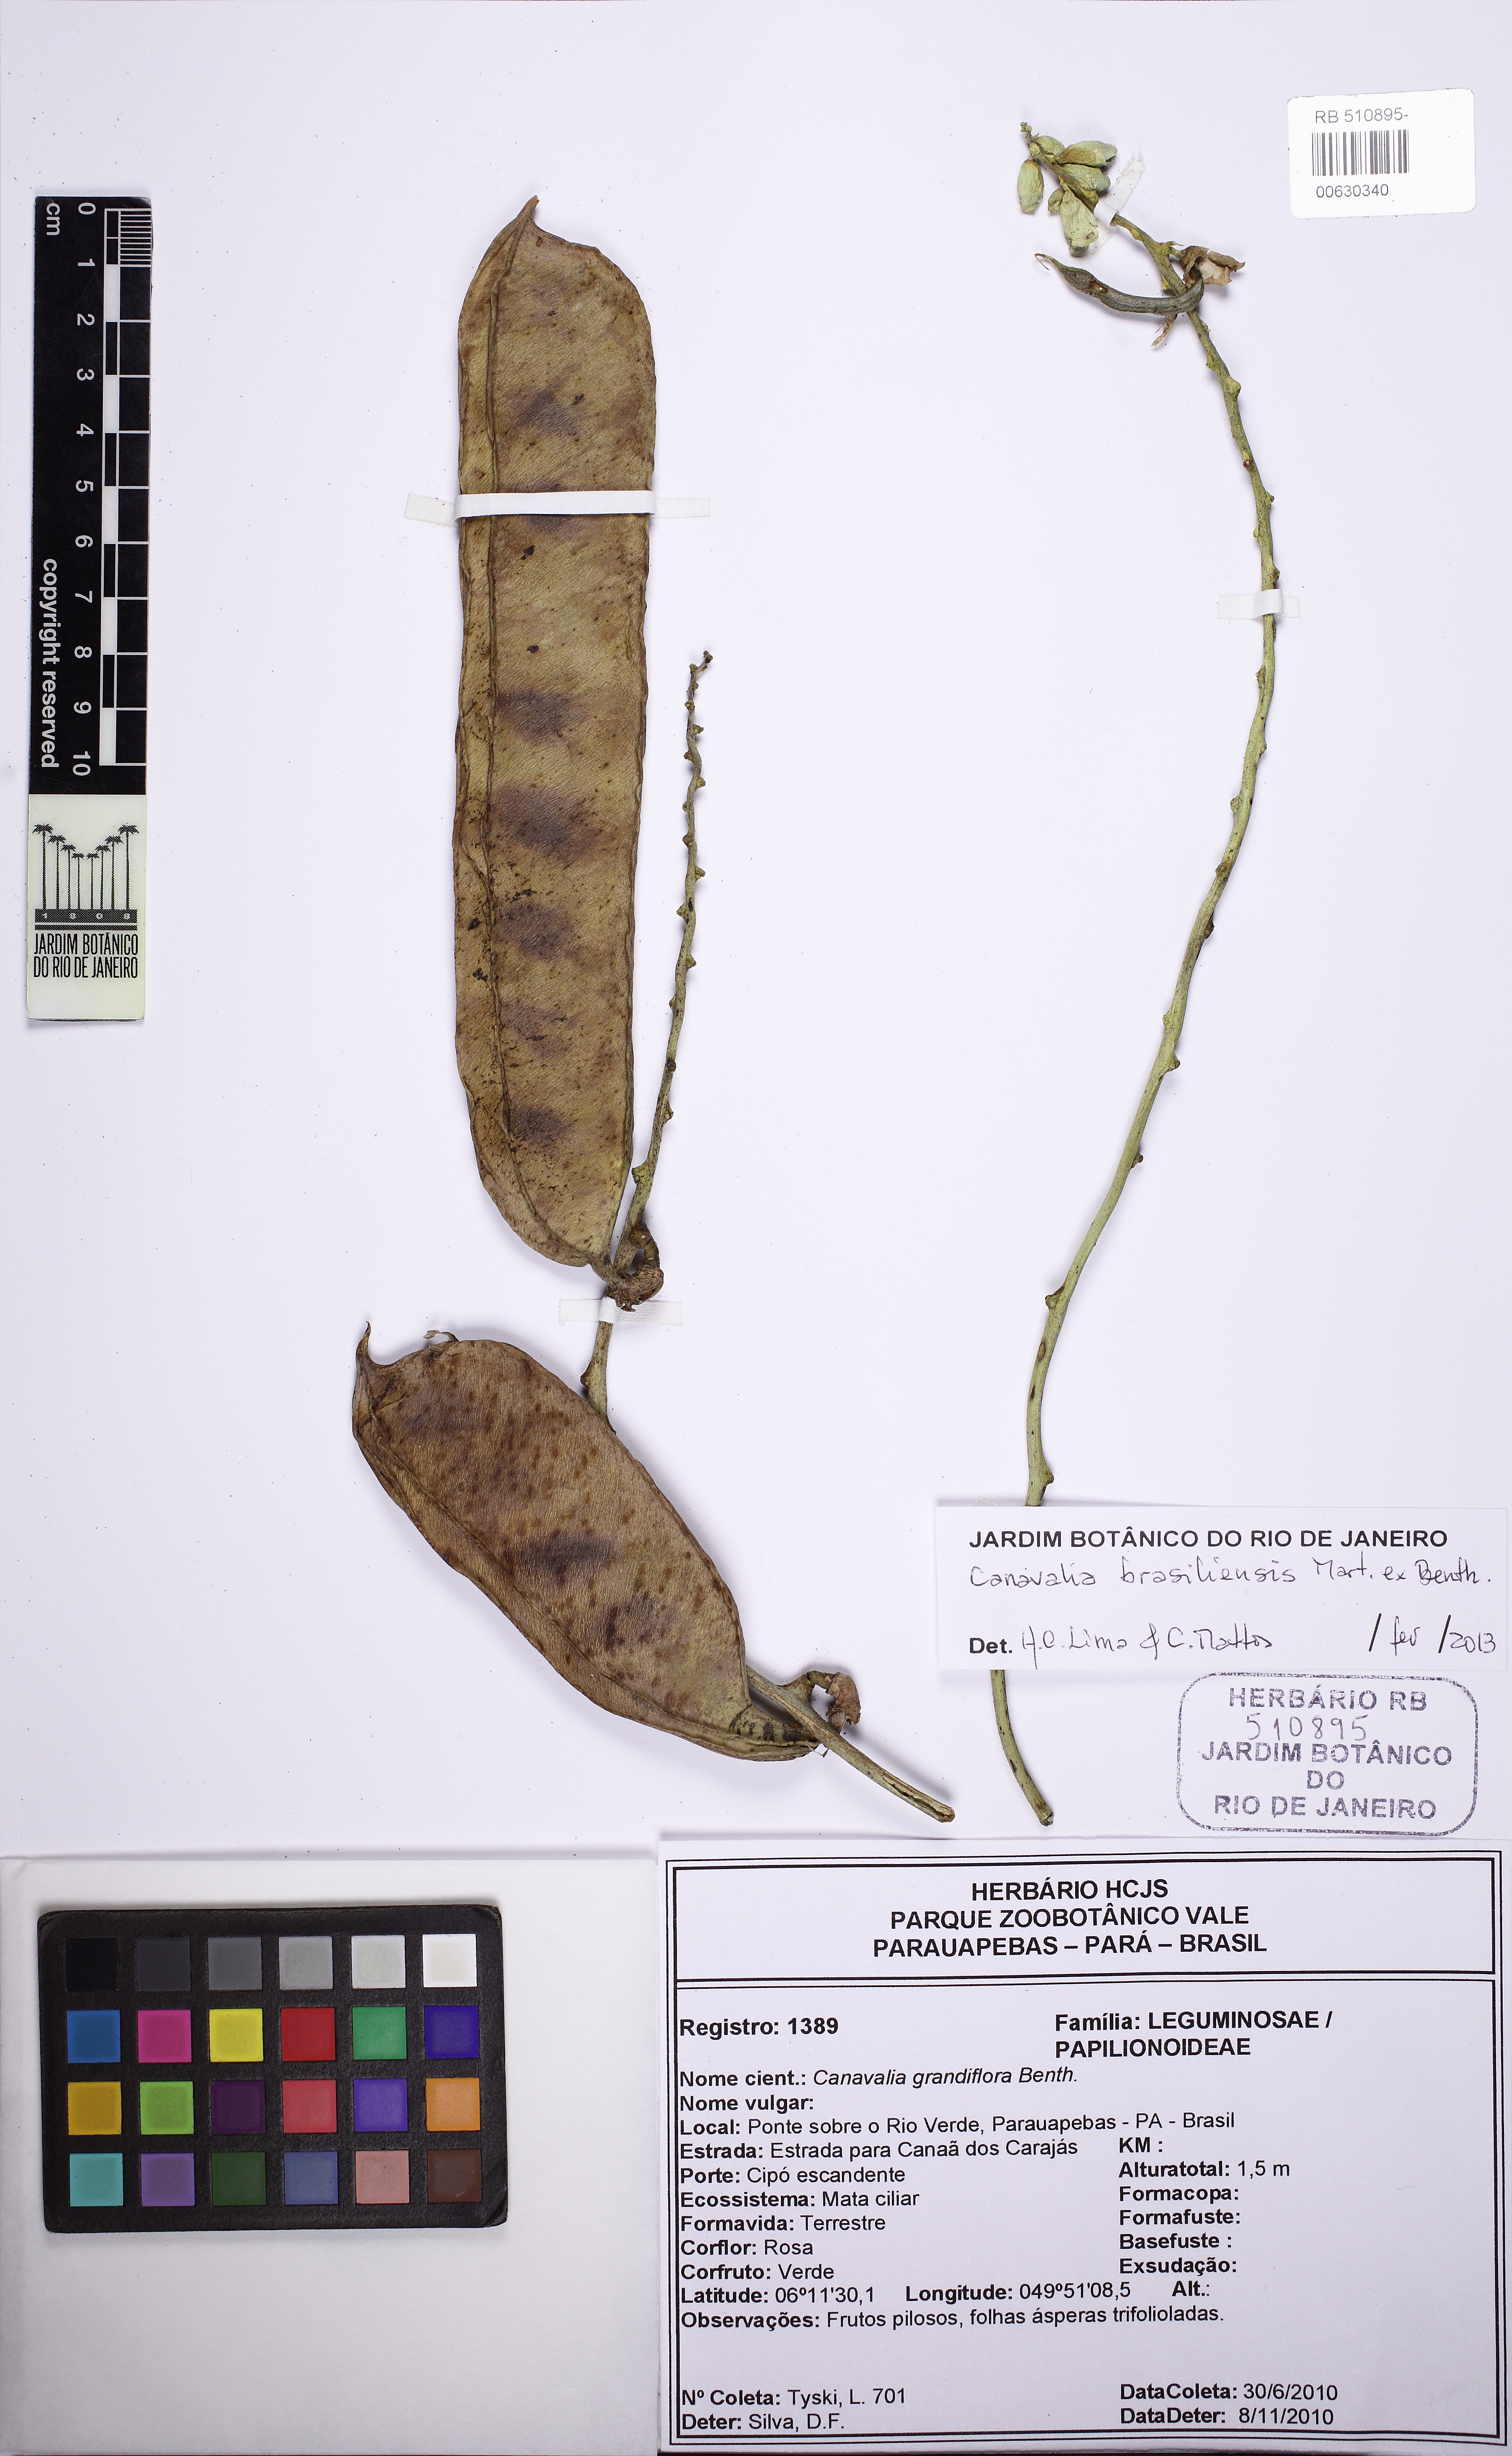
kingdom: Plantae
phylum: Tracheophyta
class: Magnoliopsida
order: Fabales
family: Fabaceae
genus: Canavalia
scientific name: Canavalia brasiliensis
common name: Barbicou-bean
